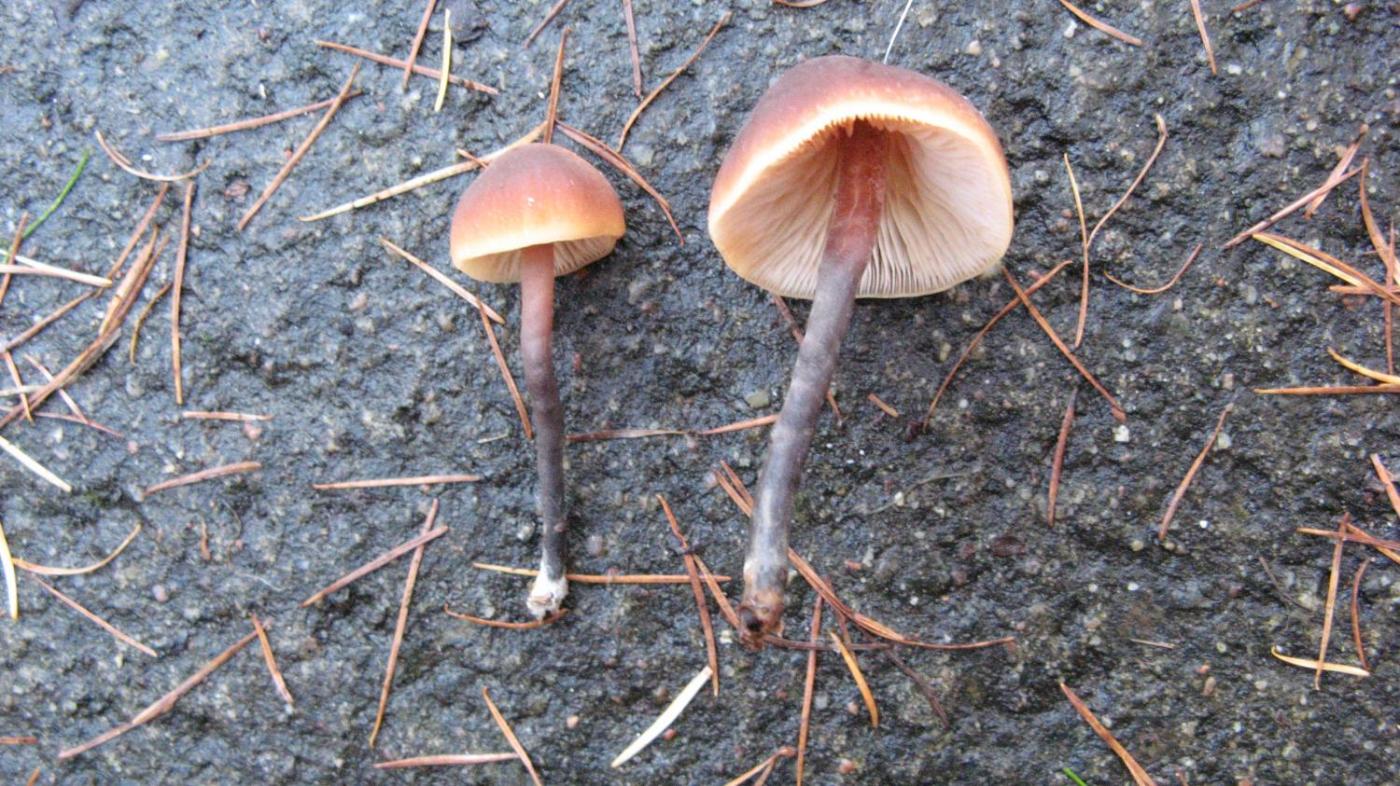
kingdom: Fungi
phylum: Basidiomycota
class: Agaricomycetes
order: Agaricales
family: Macrocystidiaceae
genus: Macrocystidia
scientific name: Macrocystidia cucumis
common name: agurkehat
